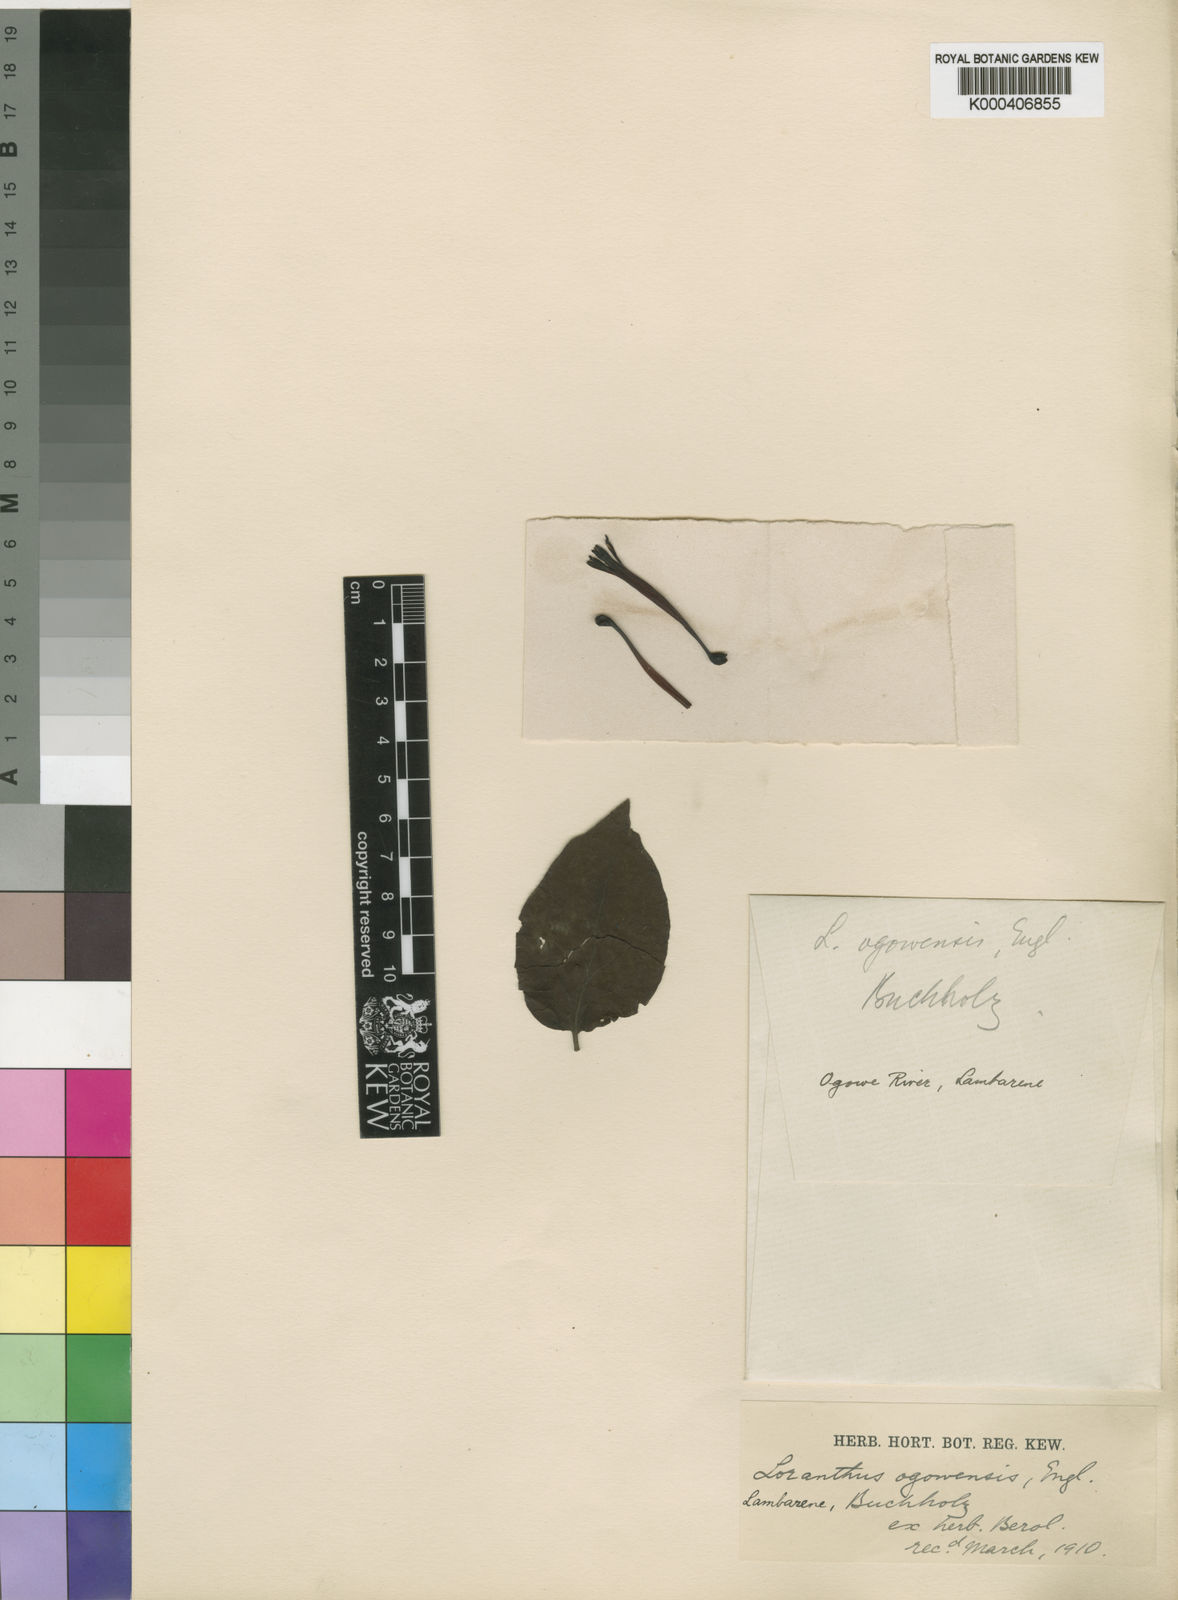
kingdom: Plantae
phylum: Tracheophyta
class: Magnoliopsida
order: Santalales
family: Loranthaceae
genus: Tapinanthus
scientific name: Tapinanthus ogowensis
